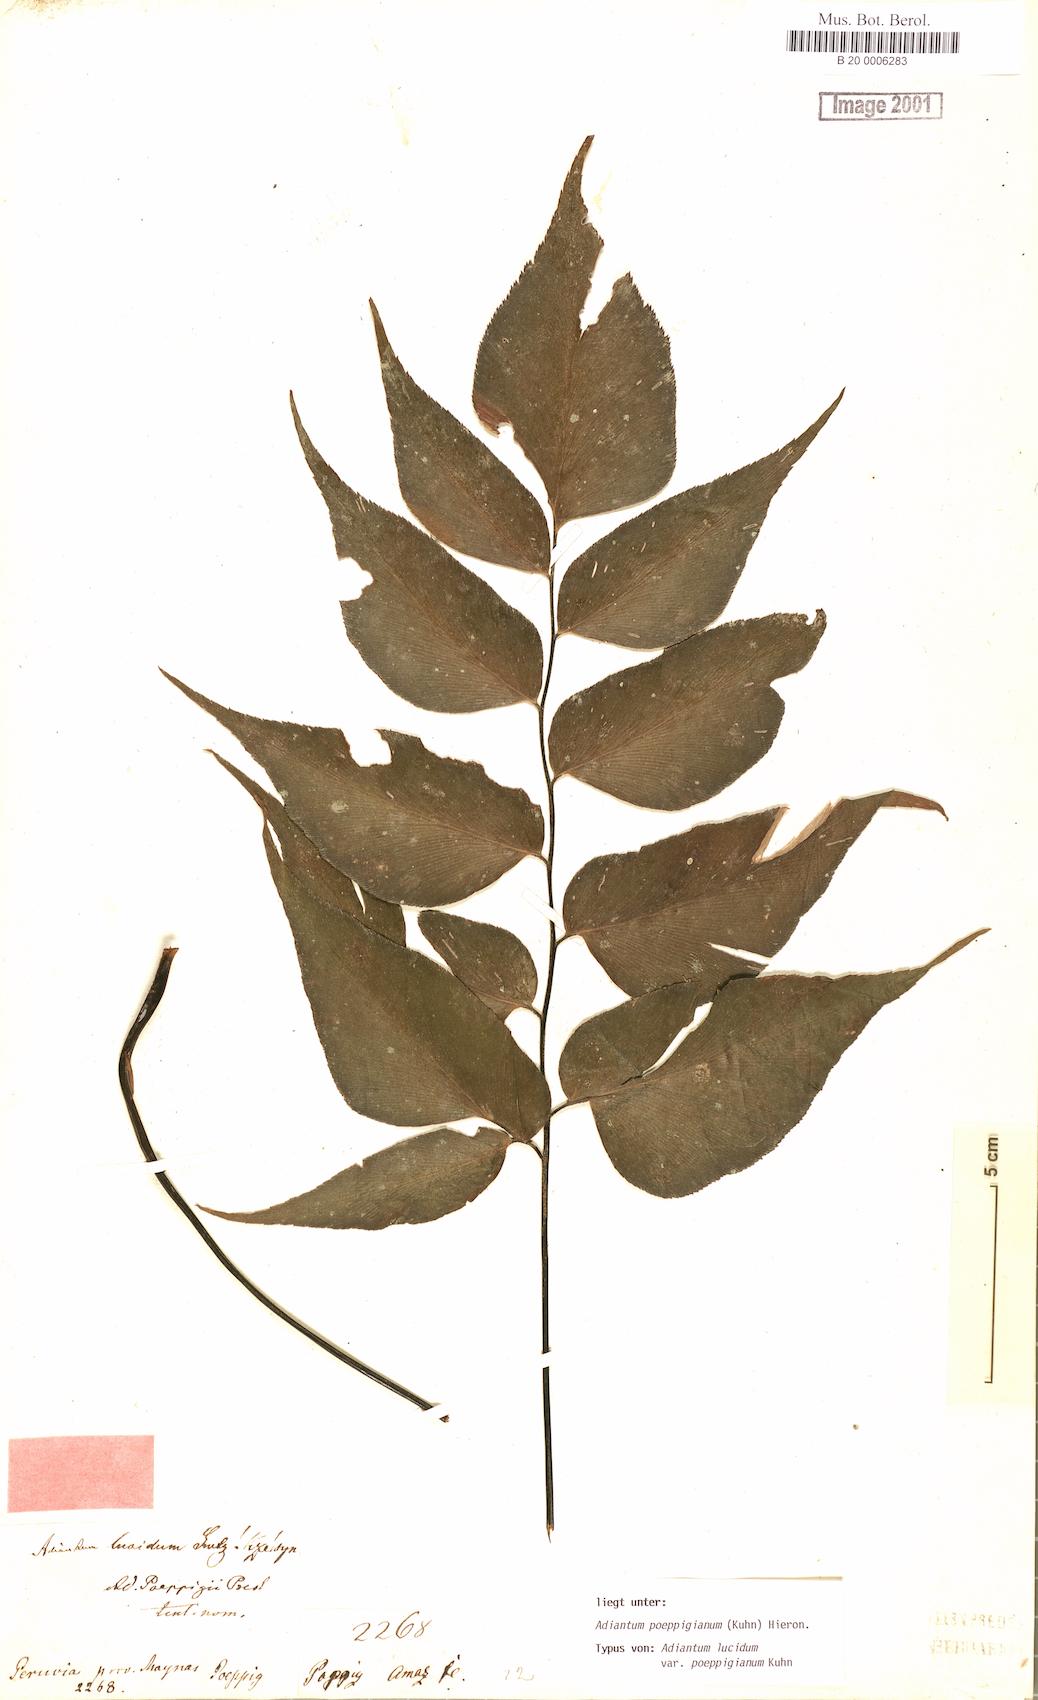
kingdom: Plantae
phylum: Tracheophyta
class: Polypodiopsida
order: Polypodiales
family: Pteridaceae
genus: Adiantum
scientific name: Adiantum poeppigianum
